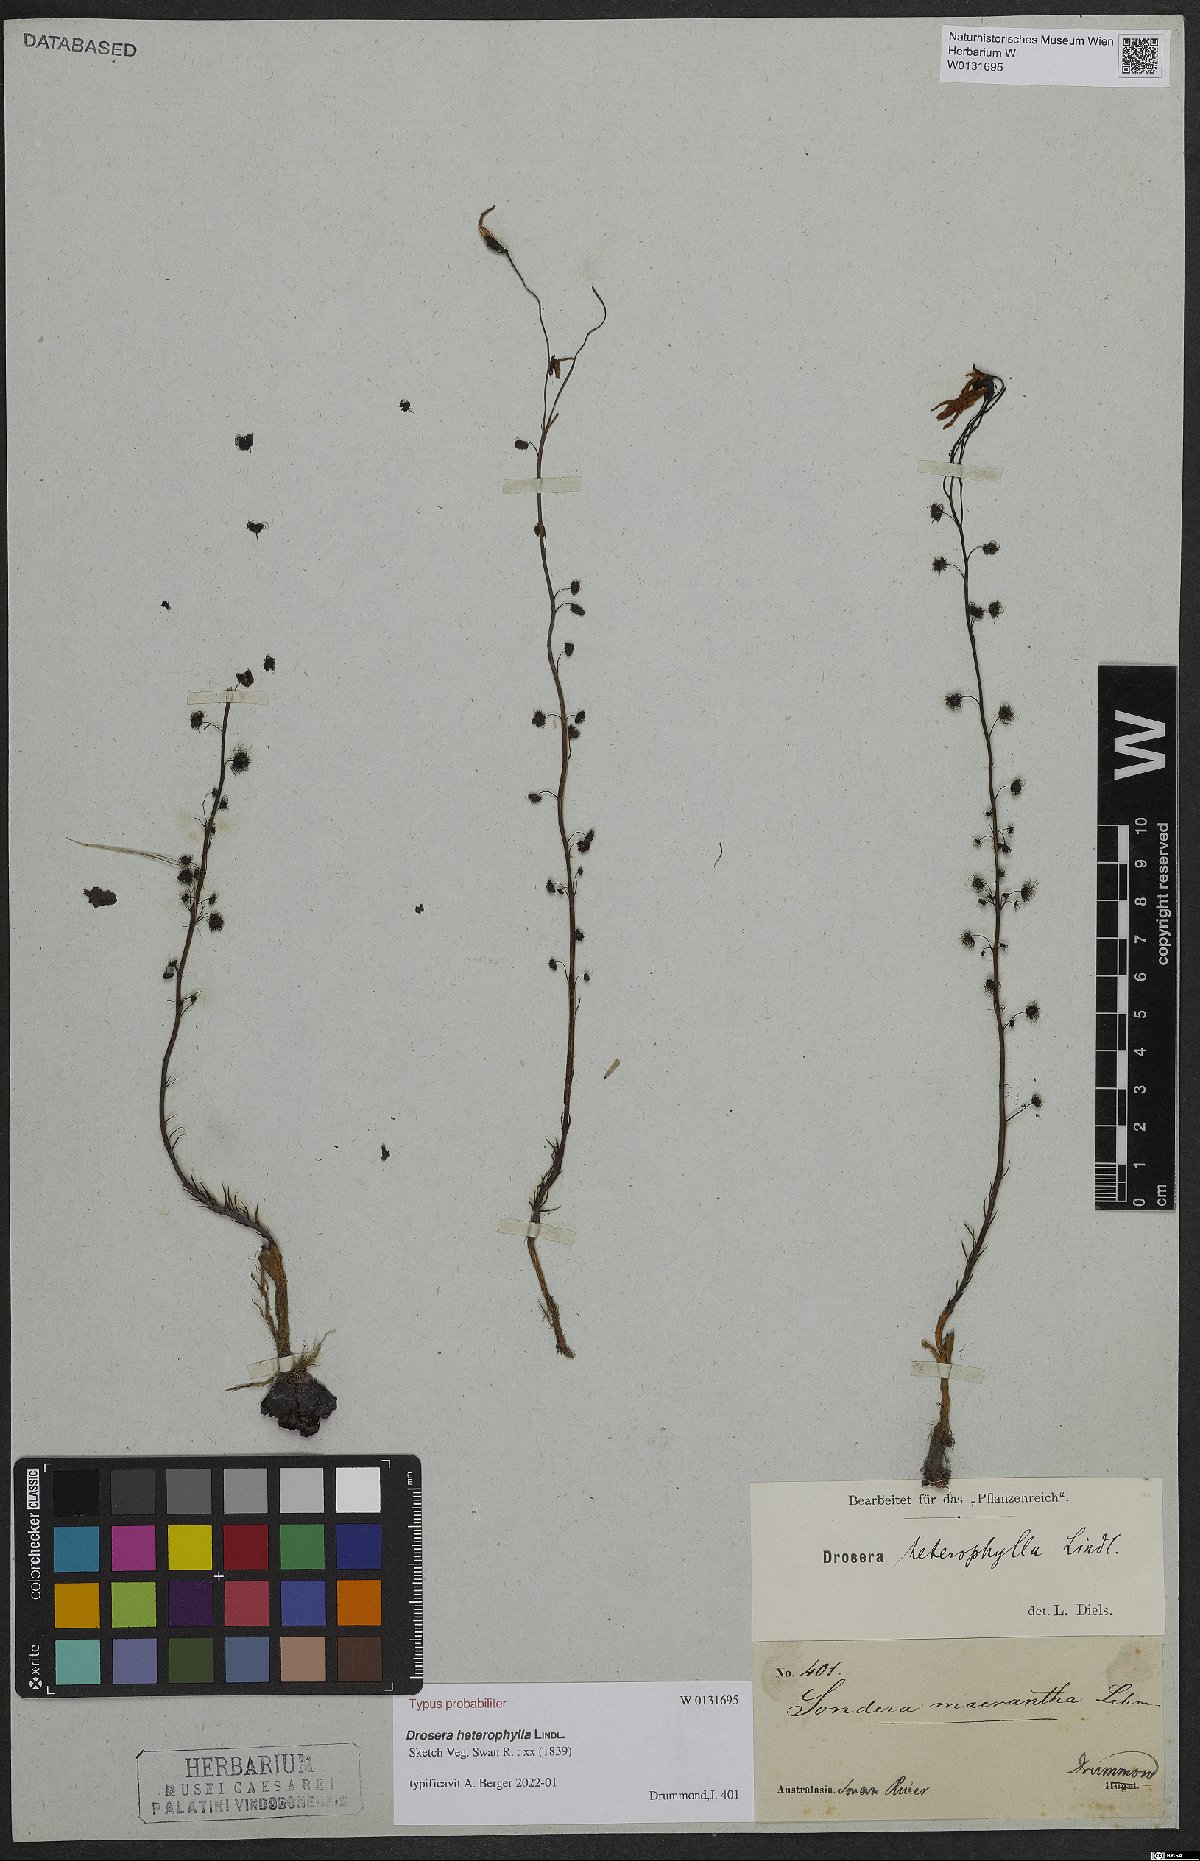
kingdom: Plantae
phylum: Tracheophyta
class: Magnoliopsida
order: Caryophyllales
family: Droseraceae
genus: Drosera
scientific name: Drosera heterophylla
